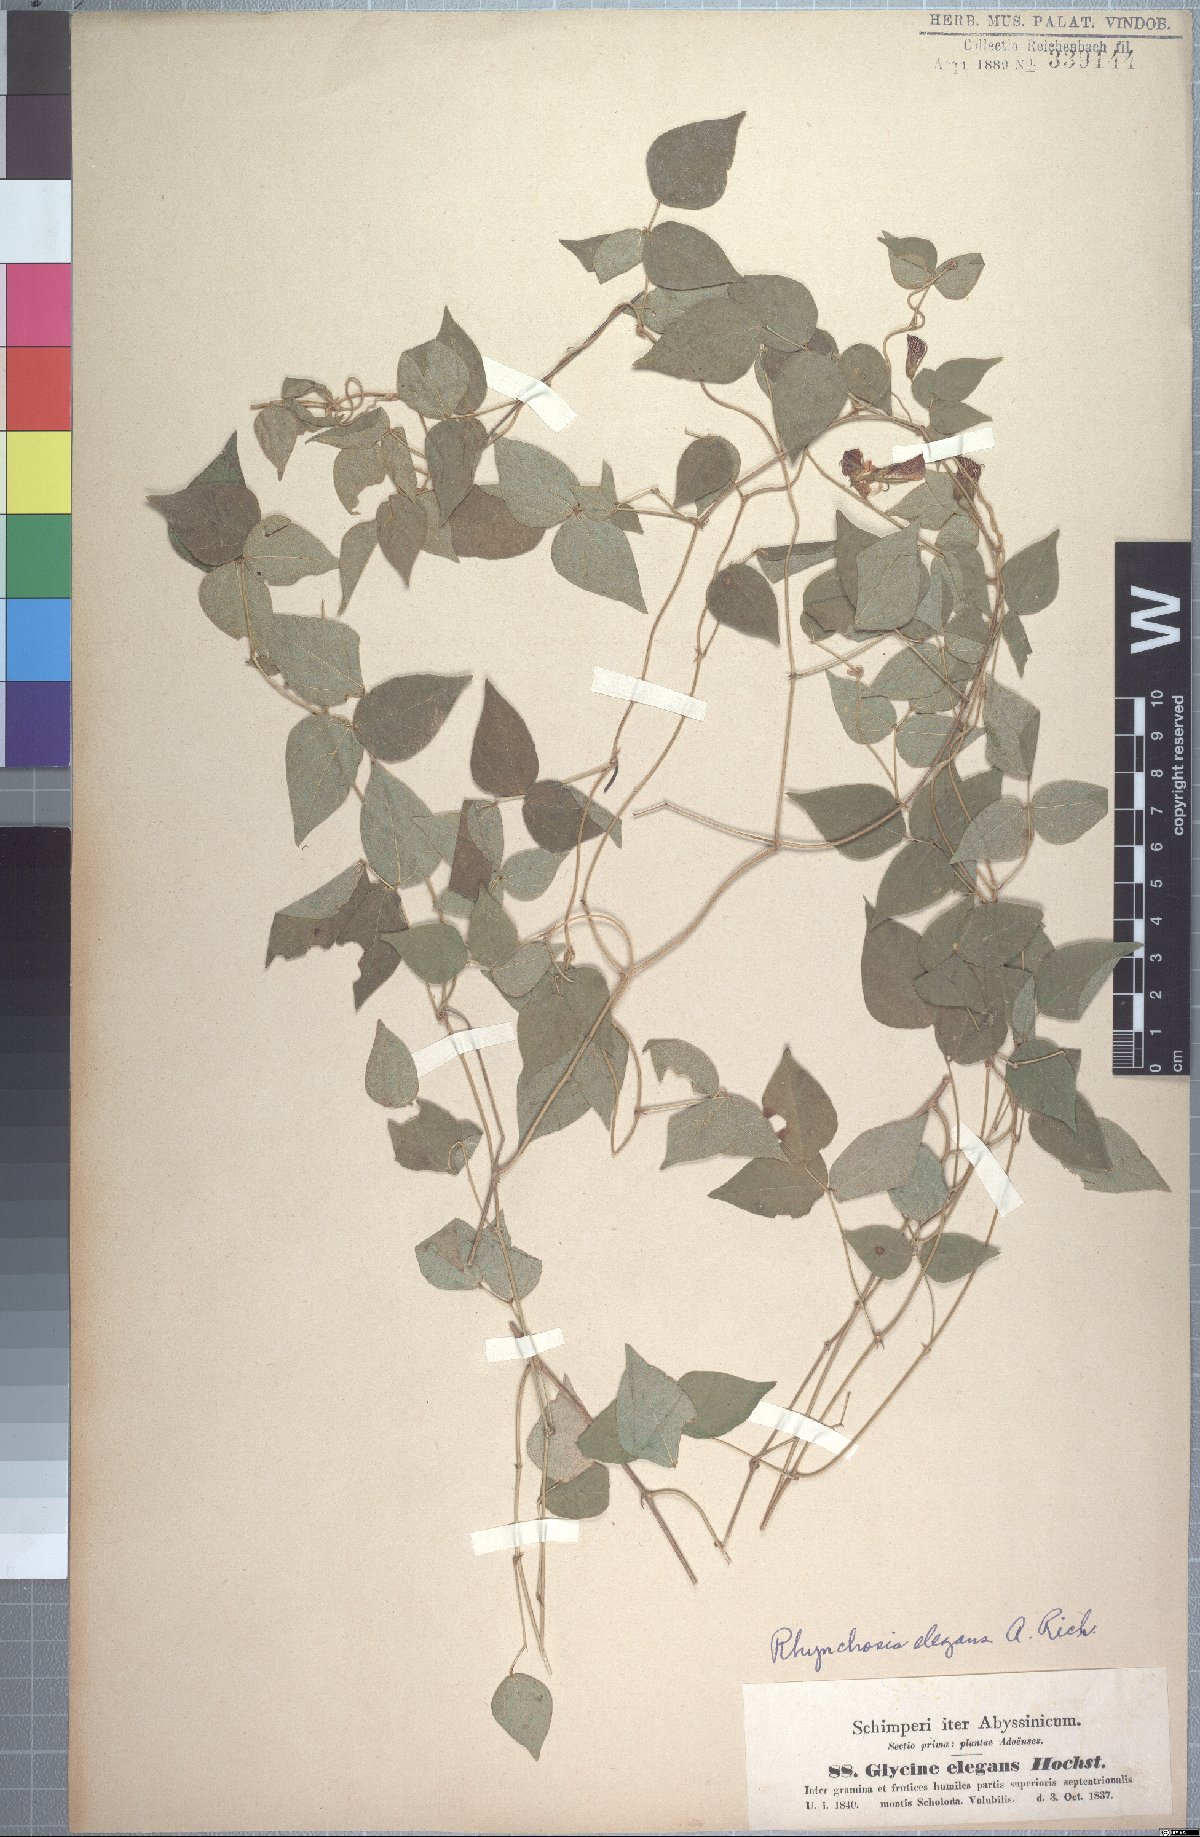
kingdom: Plantae
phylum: Tracheophyta
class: Magnoliopsida
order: Fabales
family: Fabaceae
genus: Rhynchosia
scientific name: Rhynchosia elegans
